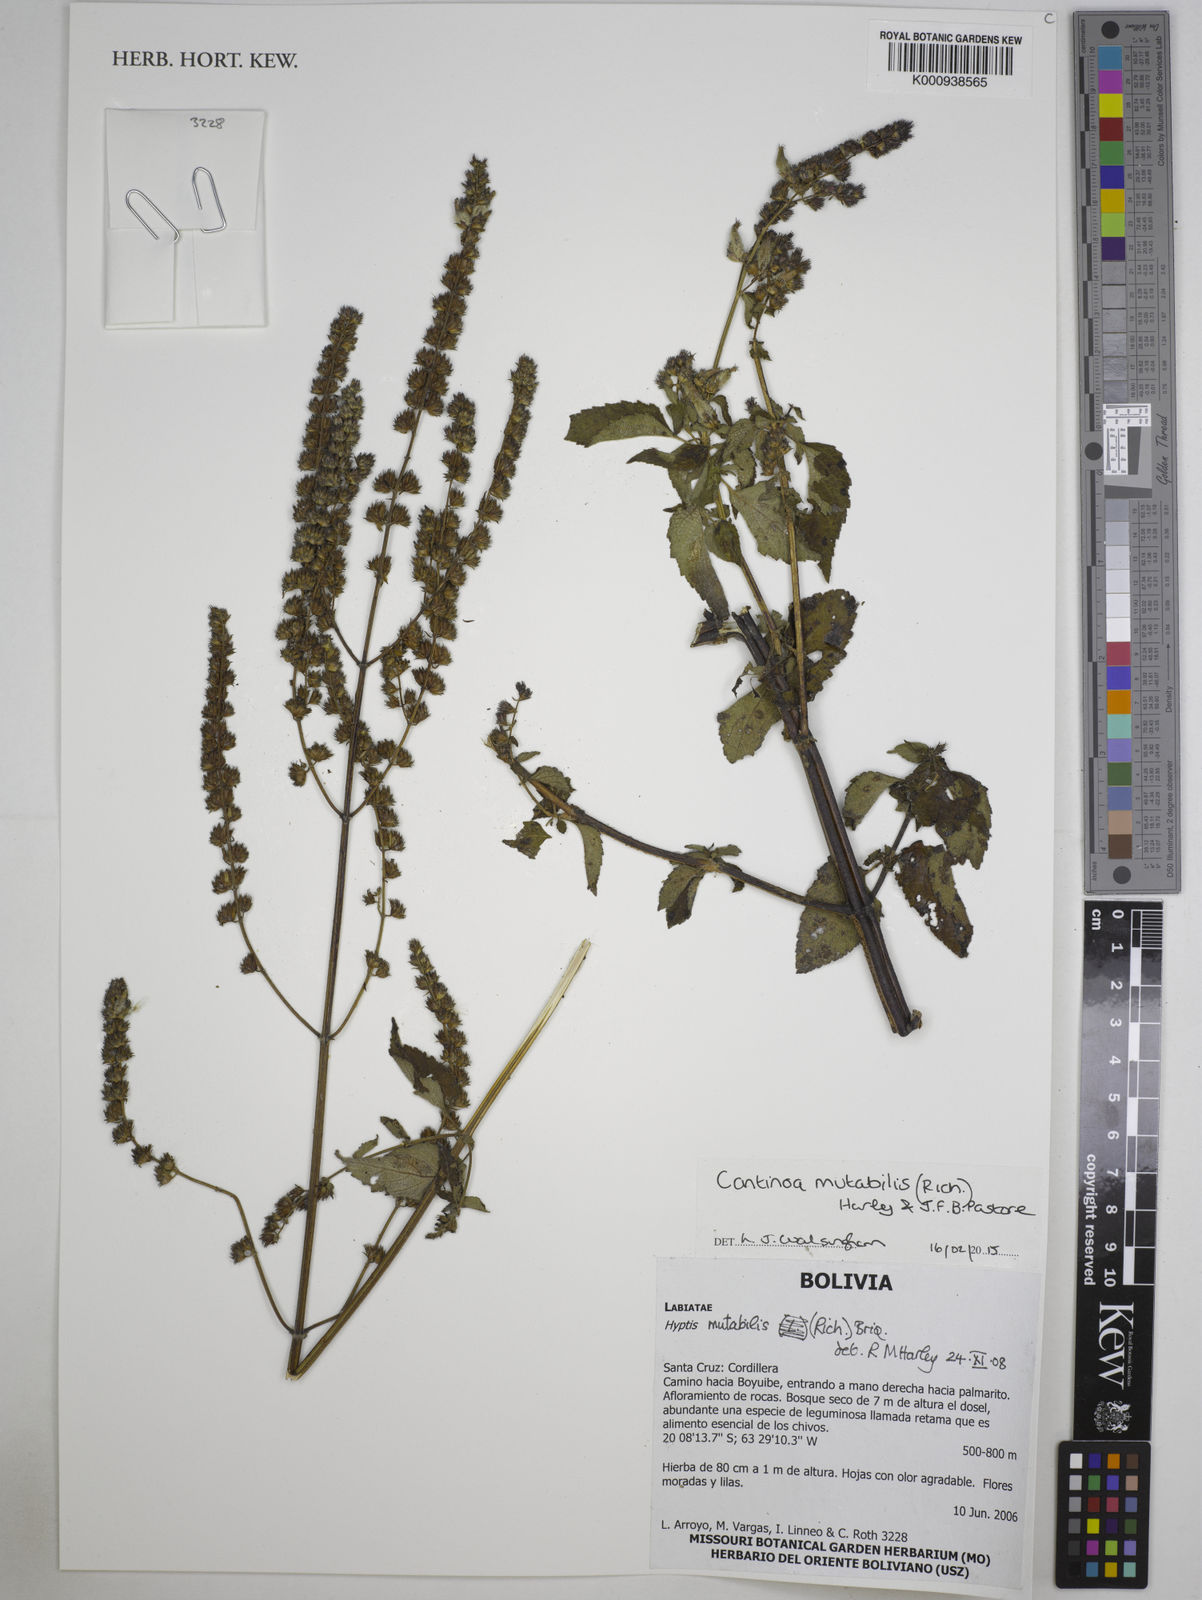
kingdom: Plantae
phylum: Tracheophyta
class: Magnoliopsida
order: Lamiales
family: Lamiaceae
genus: Cantinoa
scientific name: Cantinoa mutabilis
